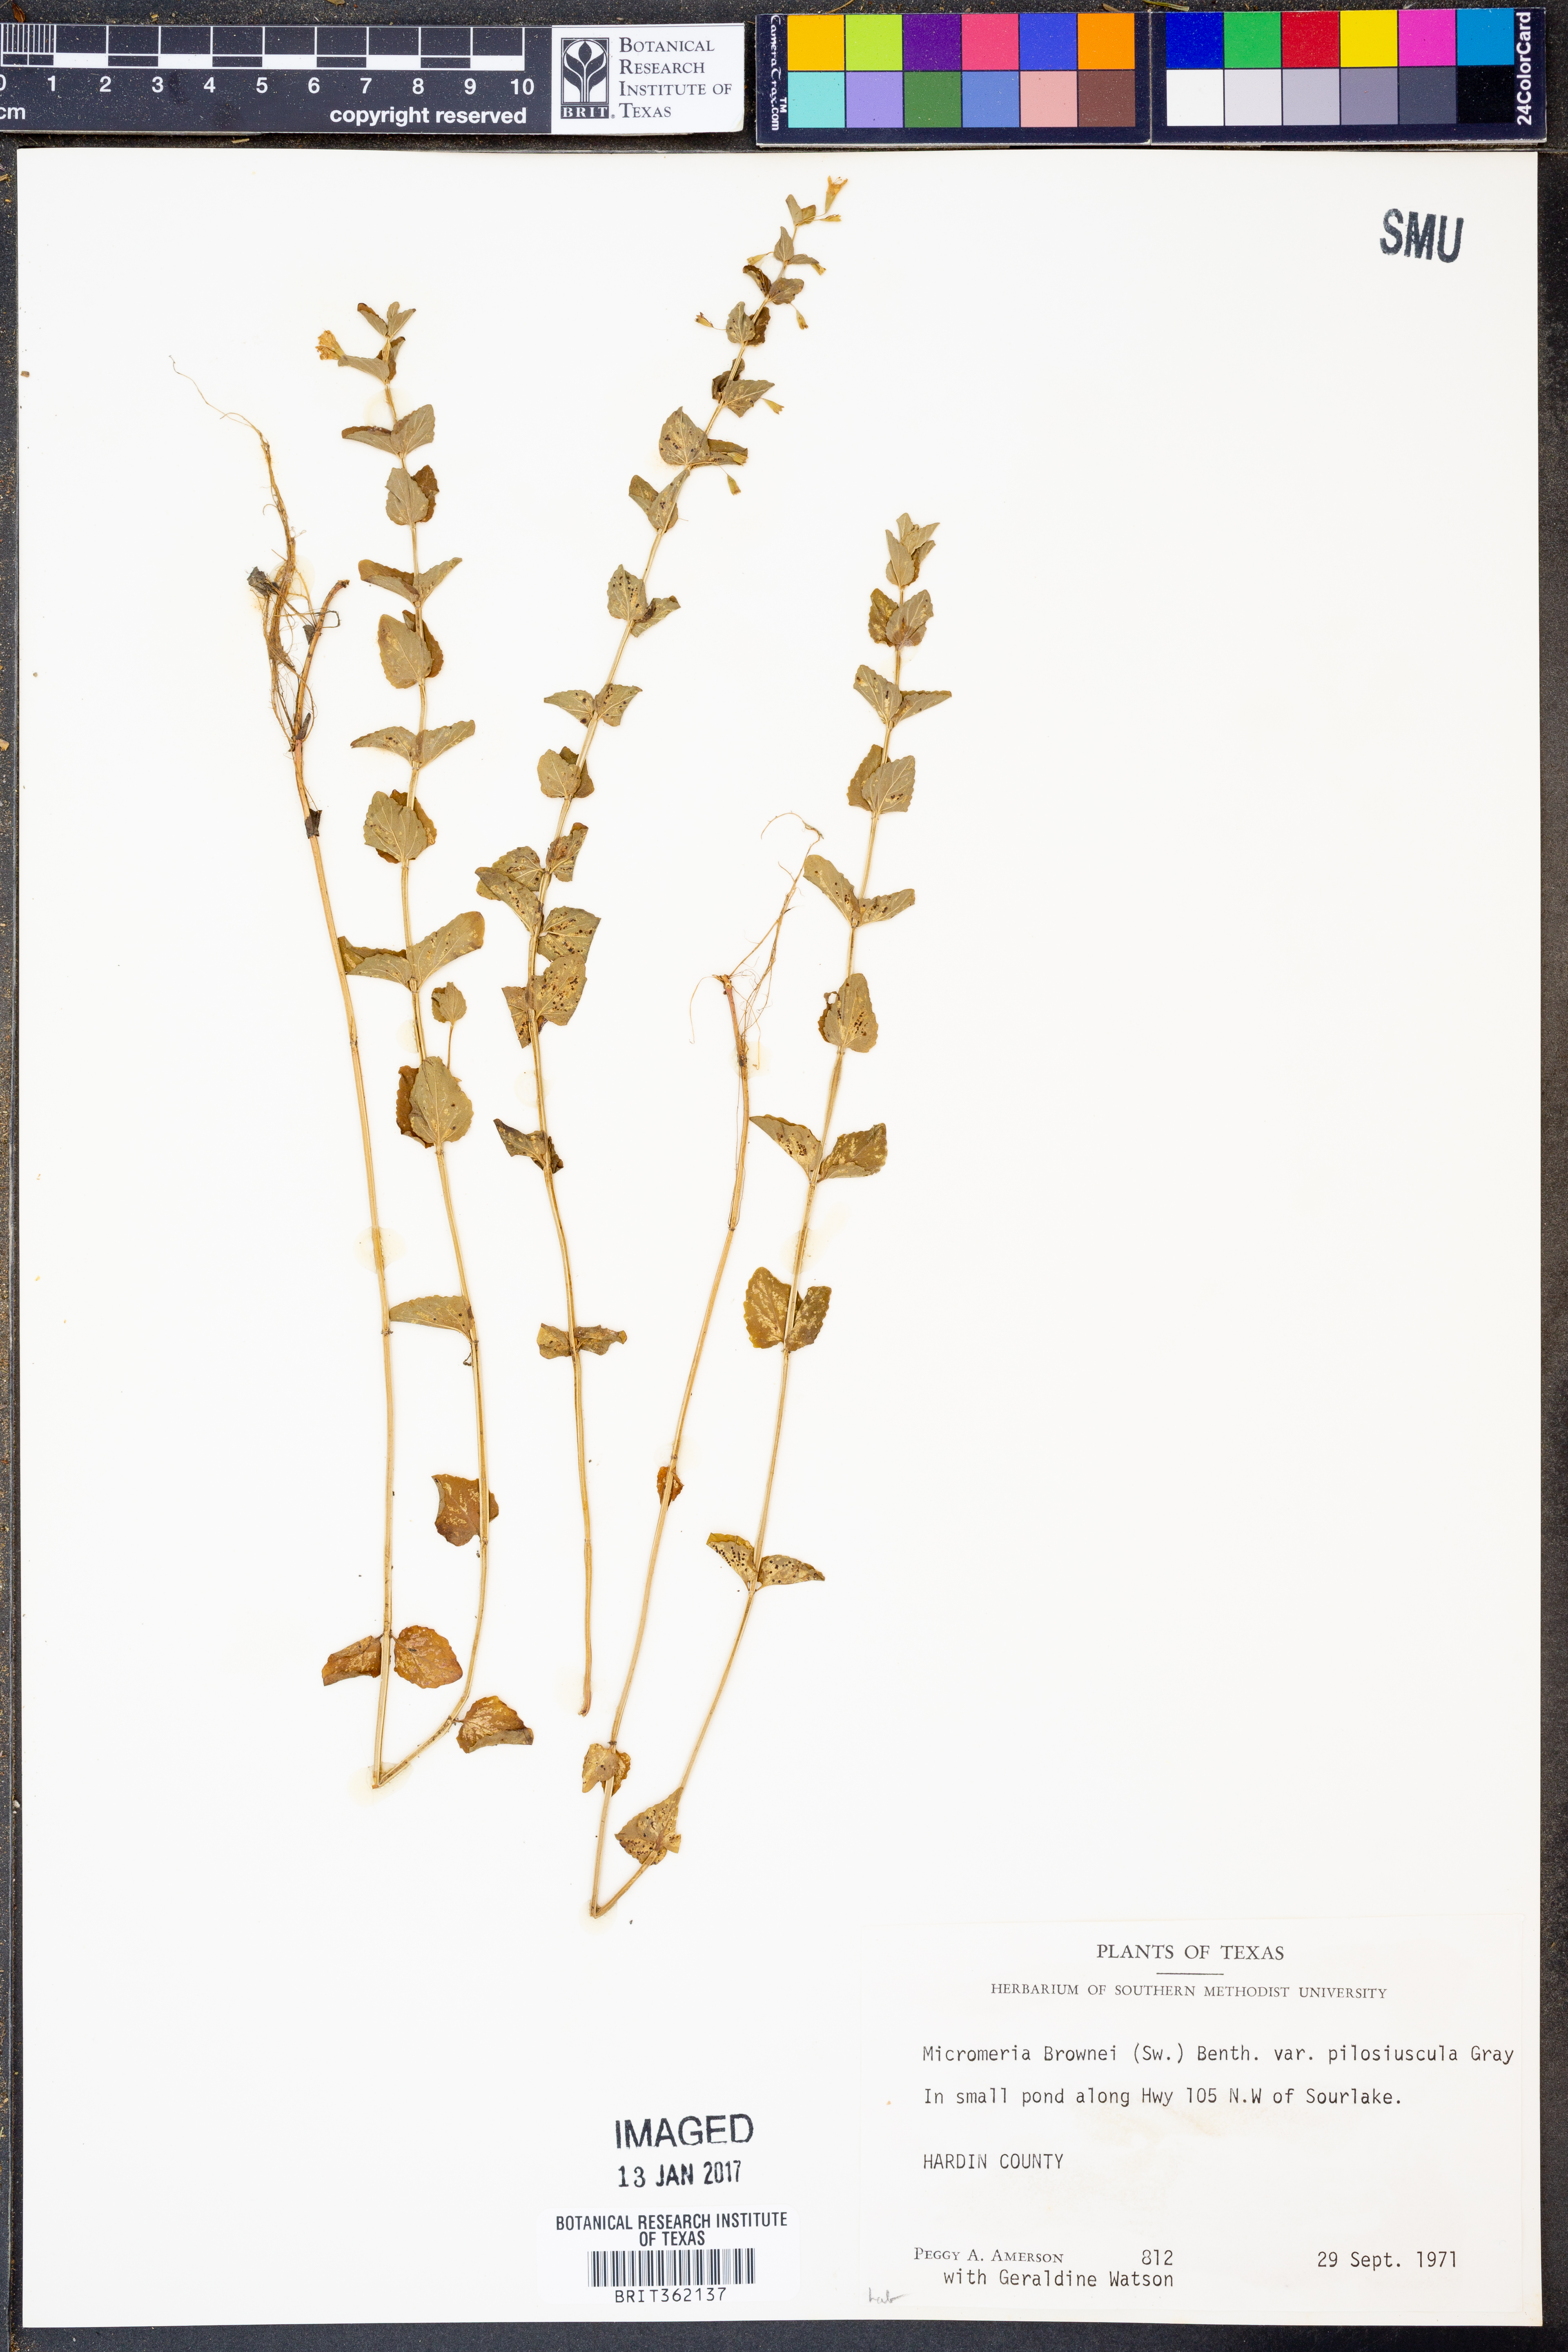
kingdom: Plantae
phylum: Tracheophyta
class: Magnoliopsida
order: Lamiales
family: Lamiaceae
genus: Clinopodium
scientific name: Clinopodium brownei
